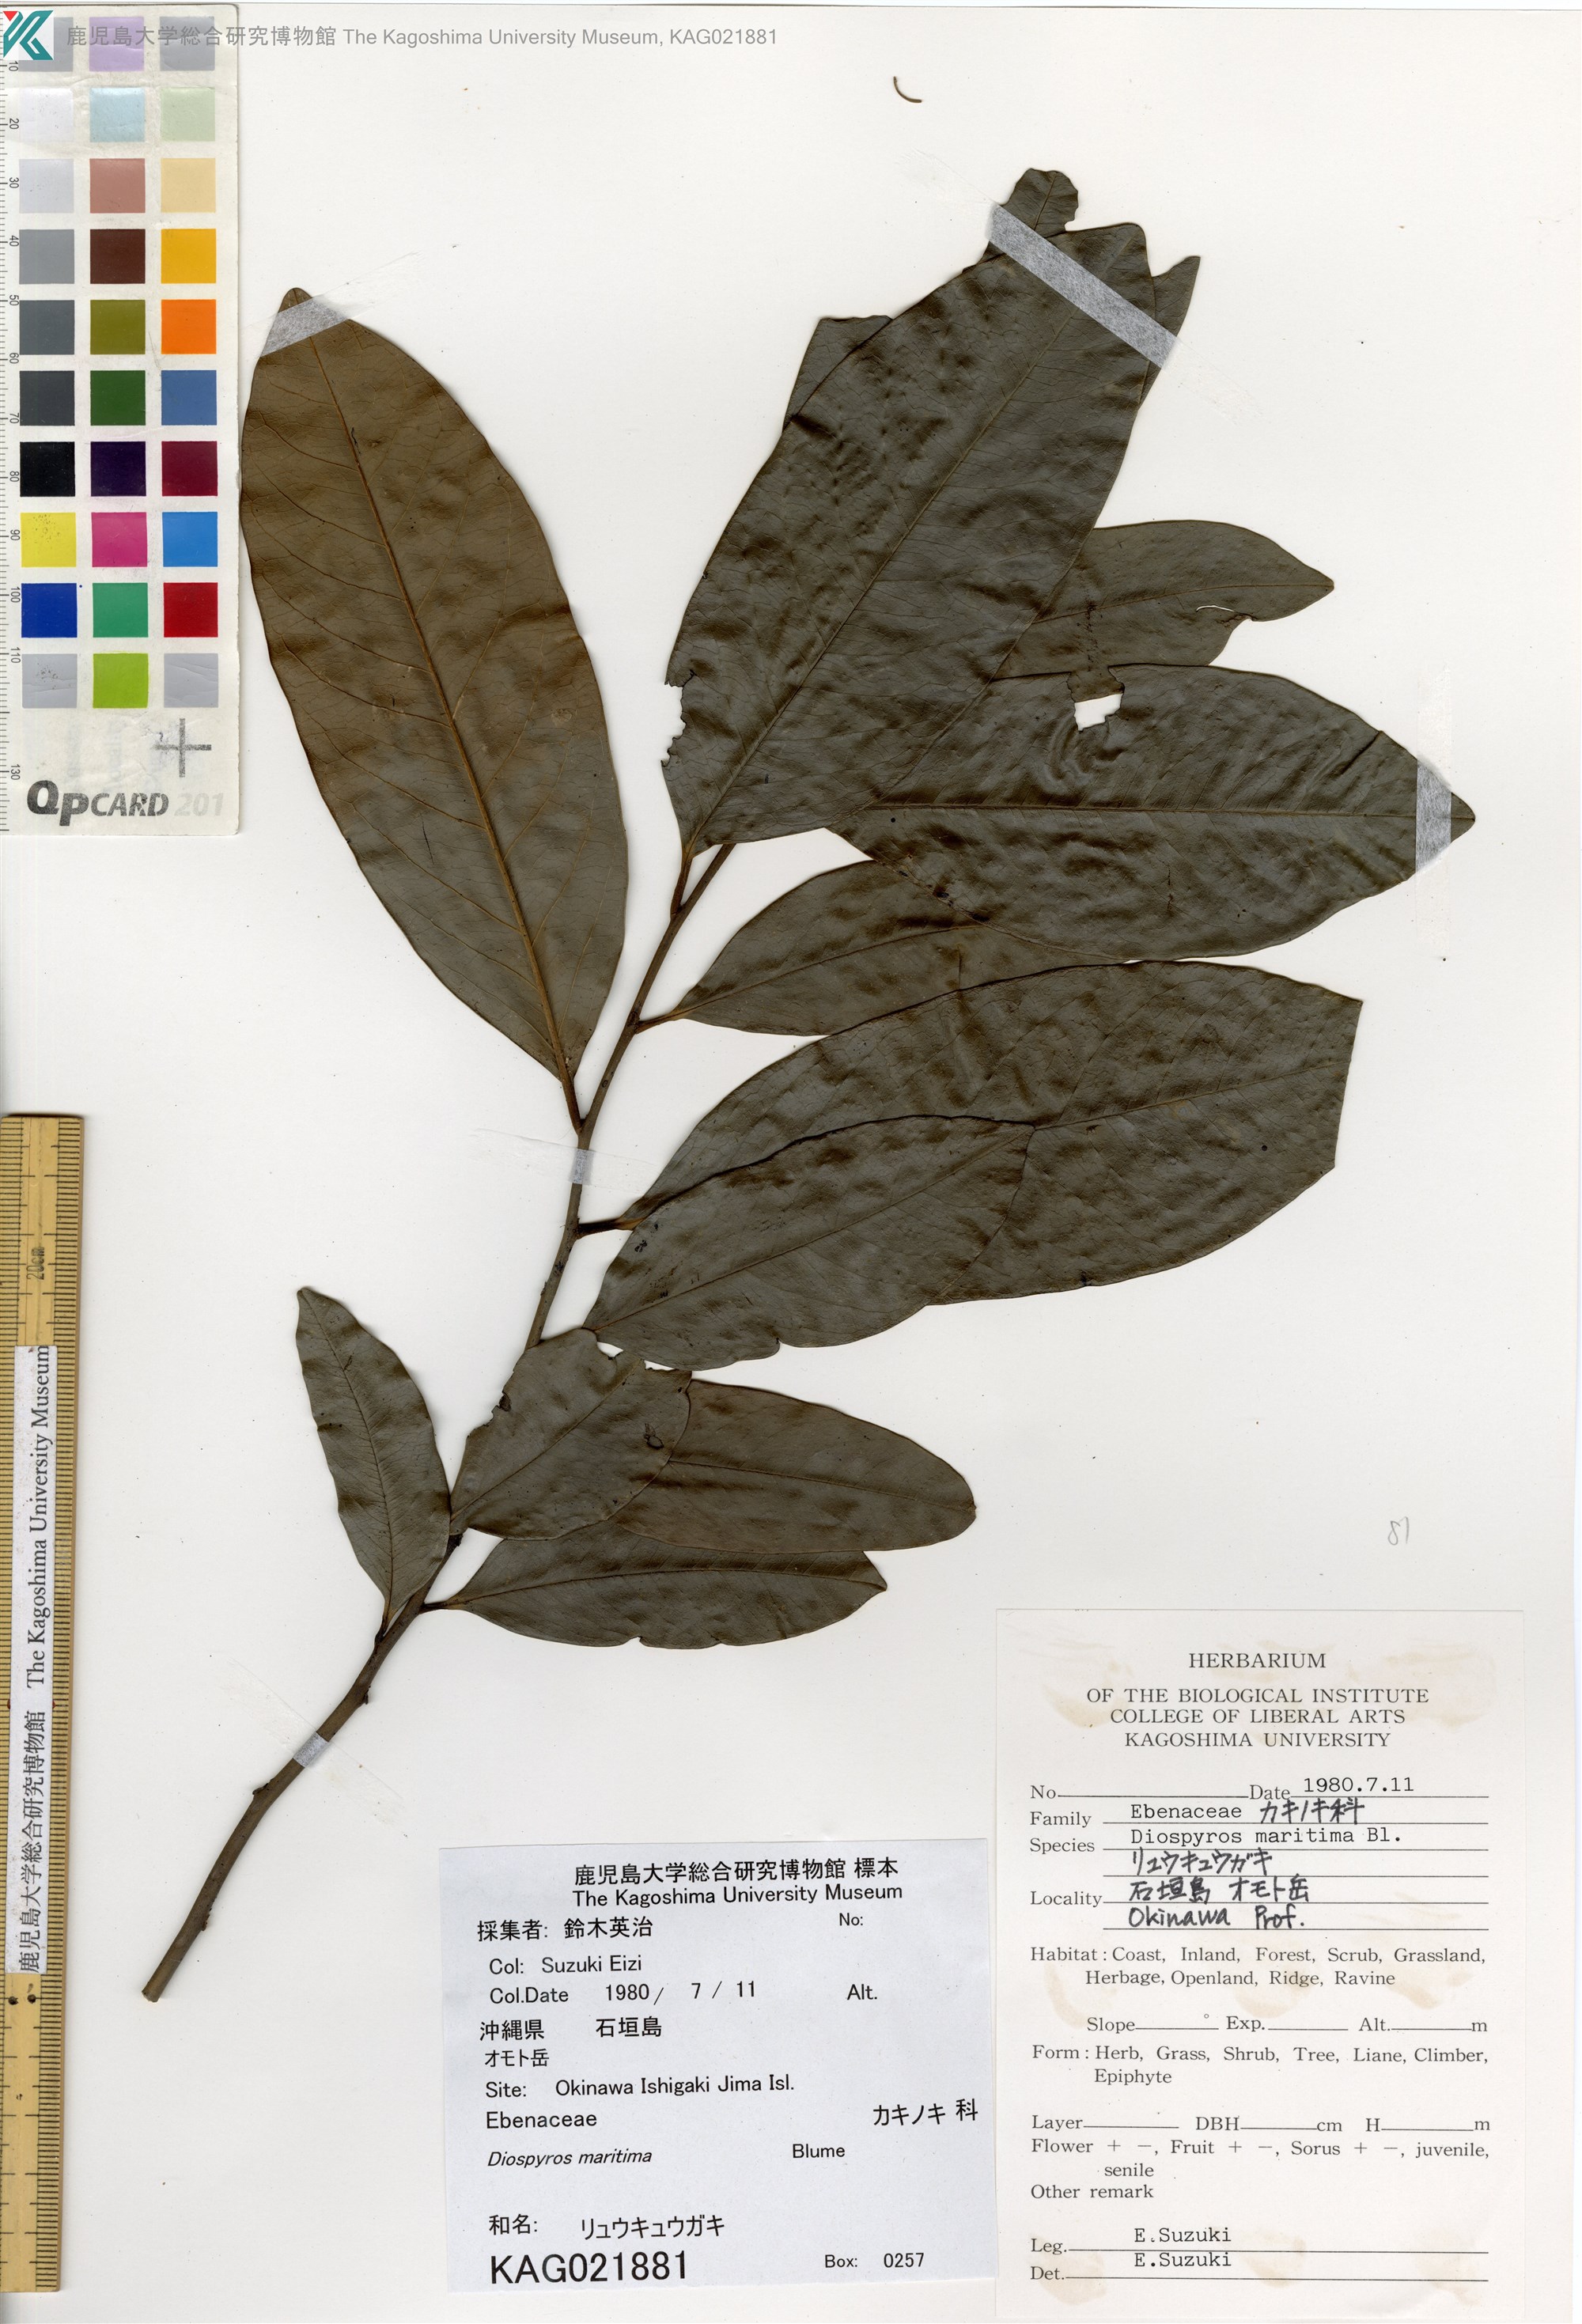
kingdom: Plantae
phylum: Tracheophyta
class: Magnoliopsida
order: Ericales
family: Ebenaceae
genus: Diospyros
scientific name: Diospyros maritima
